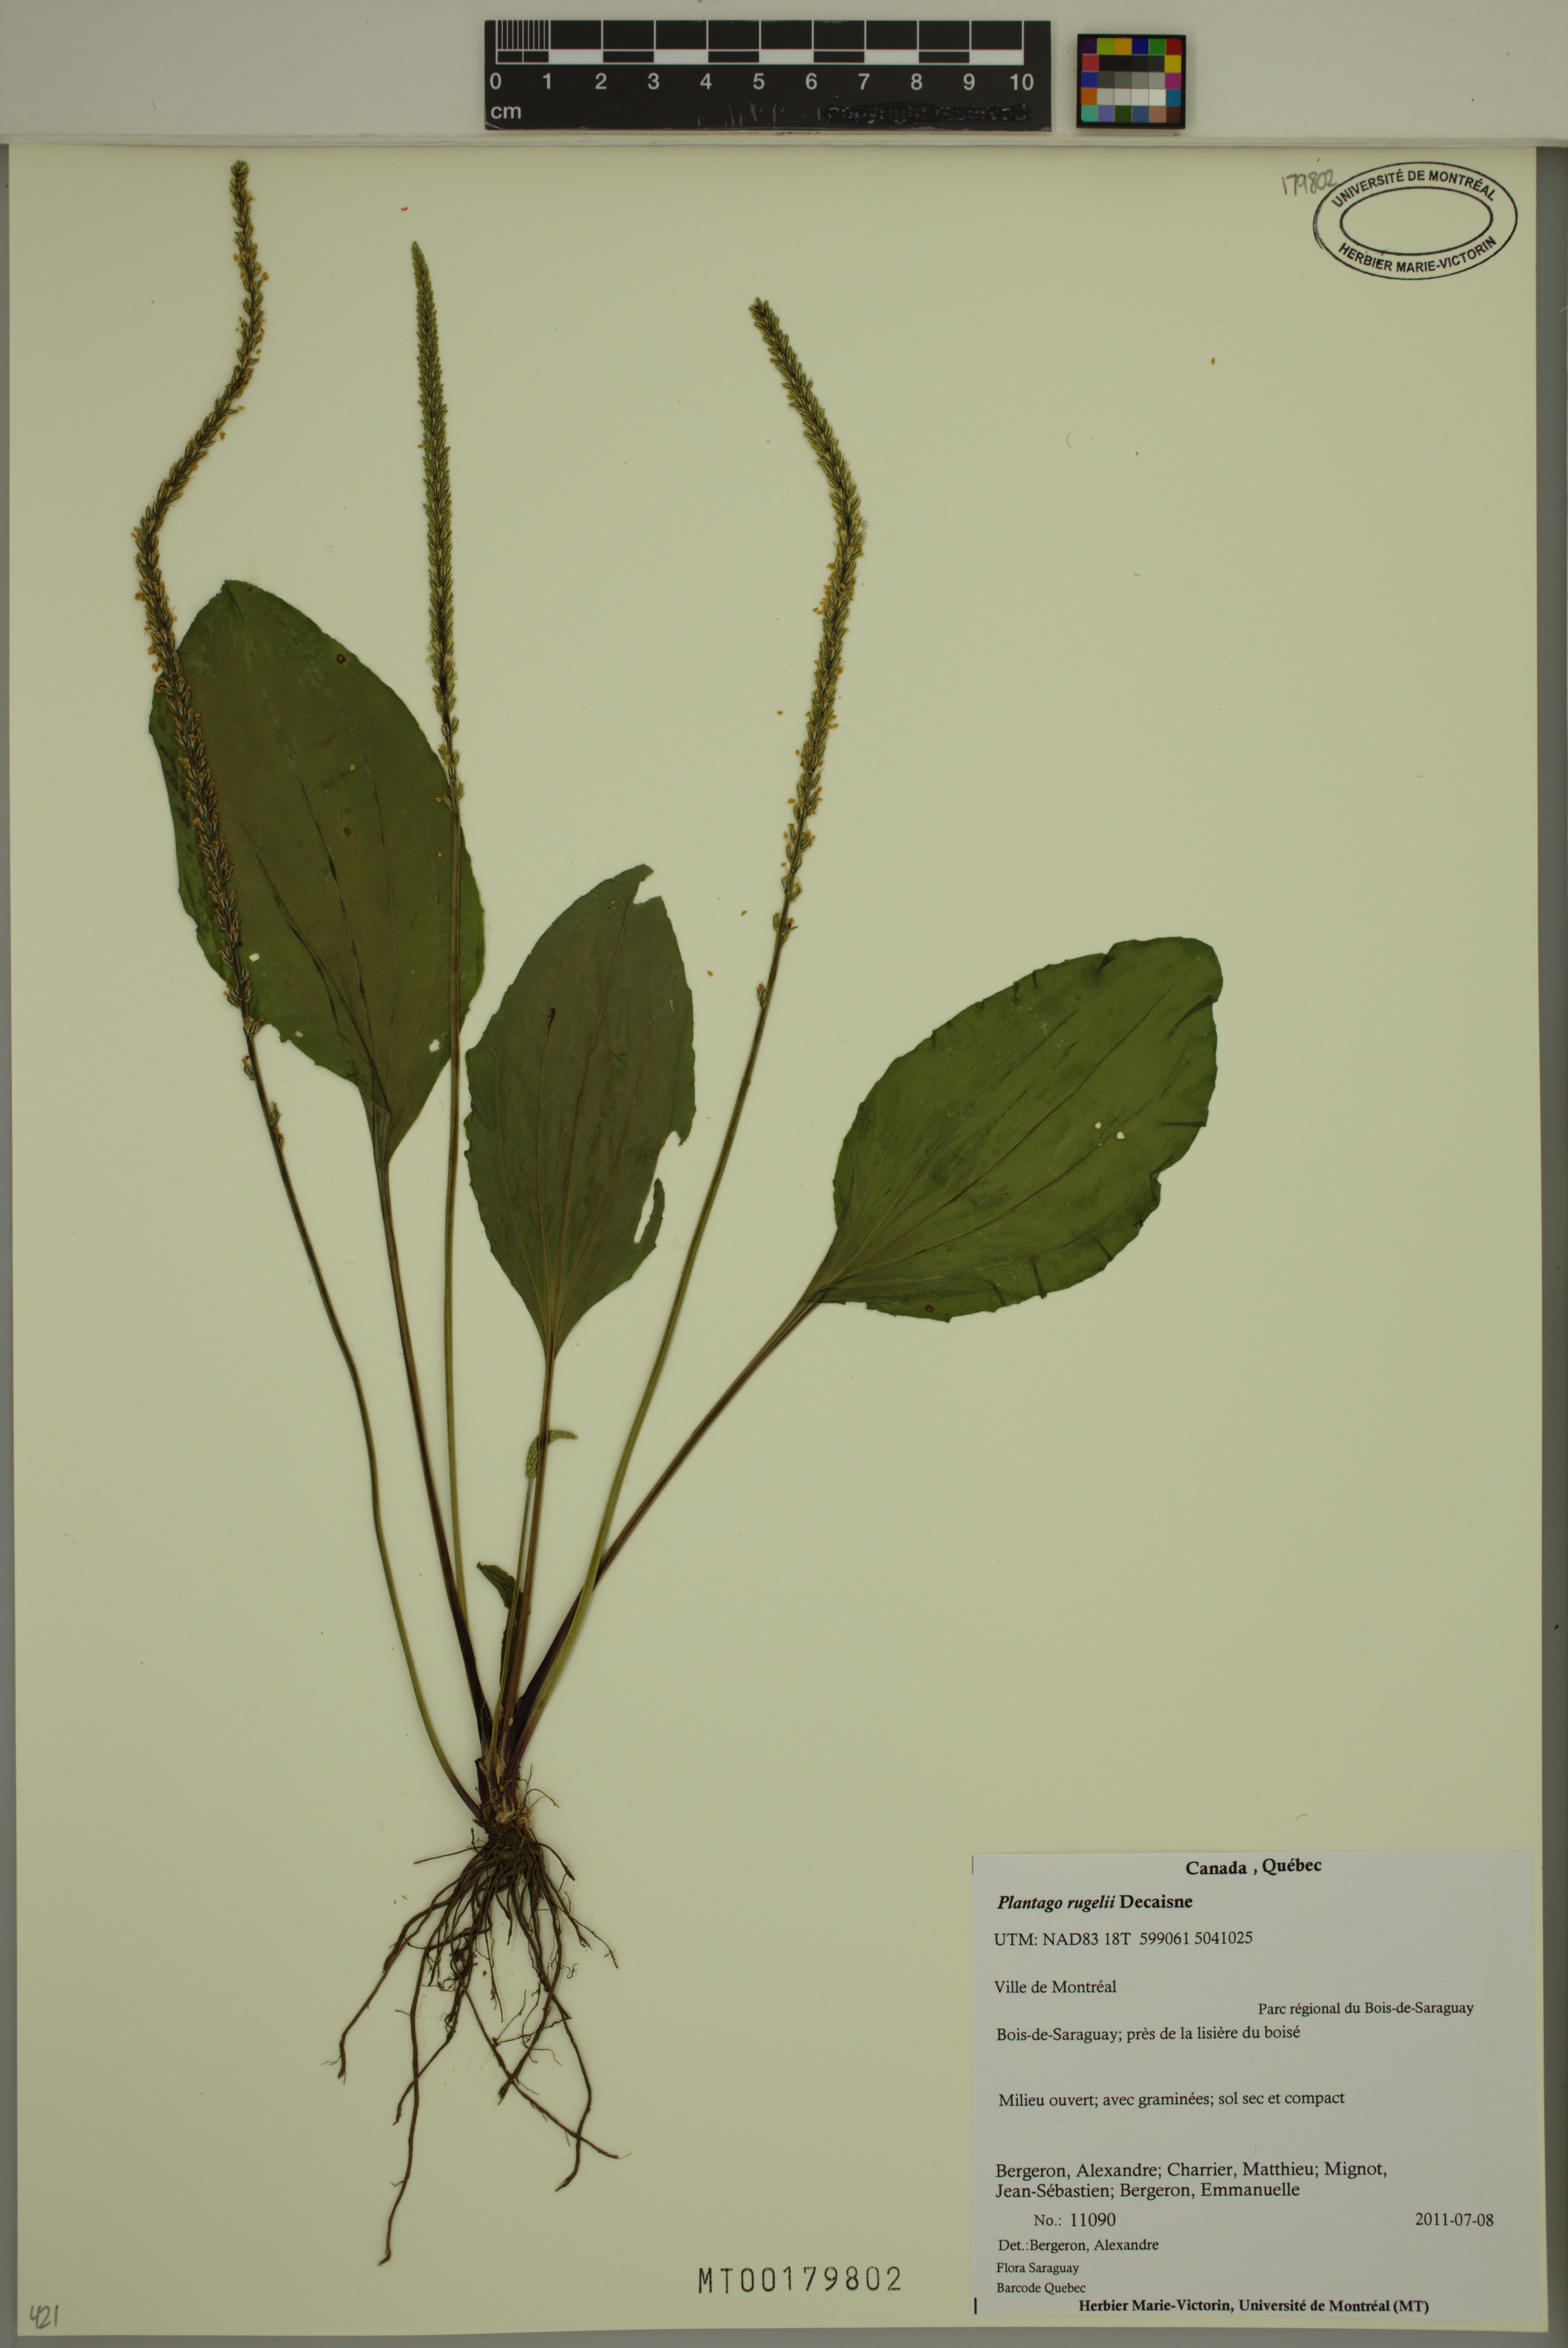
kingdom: Plantae
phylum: Tracheophyta
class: Magnoliopsida
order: Lamiales
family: Plantaginaceae
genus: Plantago
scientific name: Plantago rugelii
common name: American plantain
